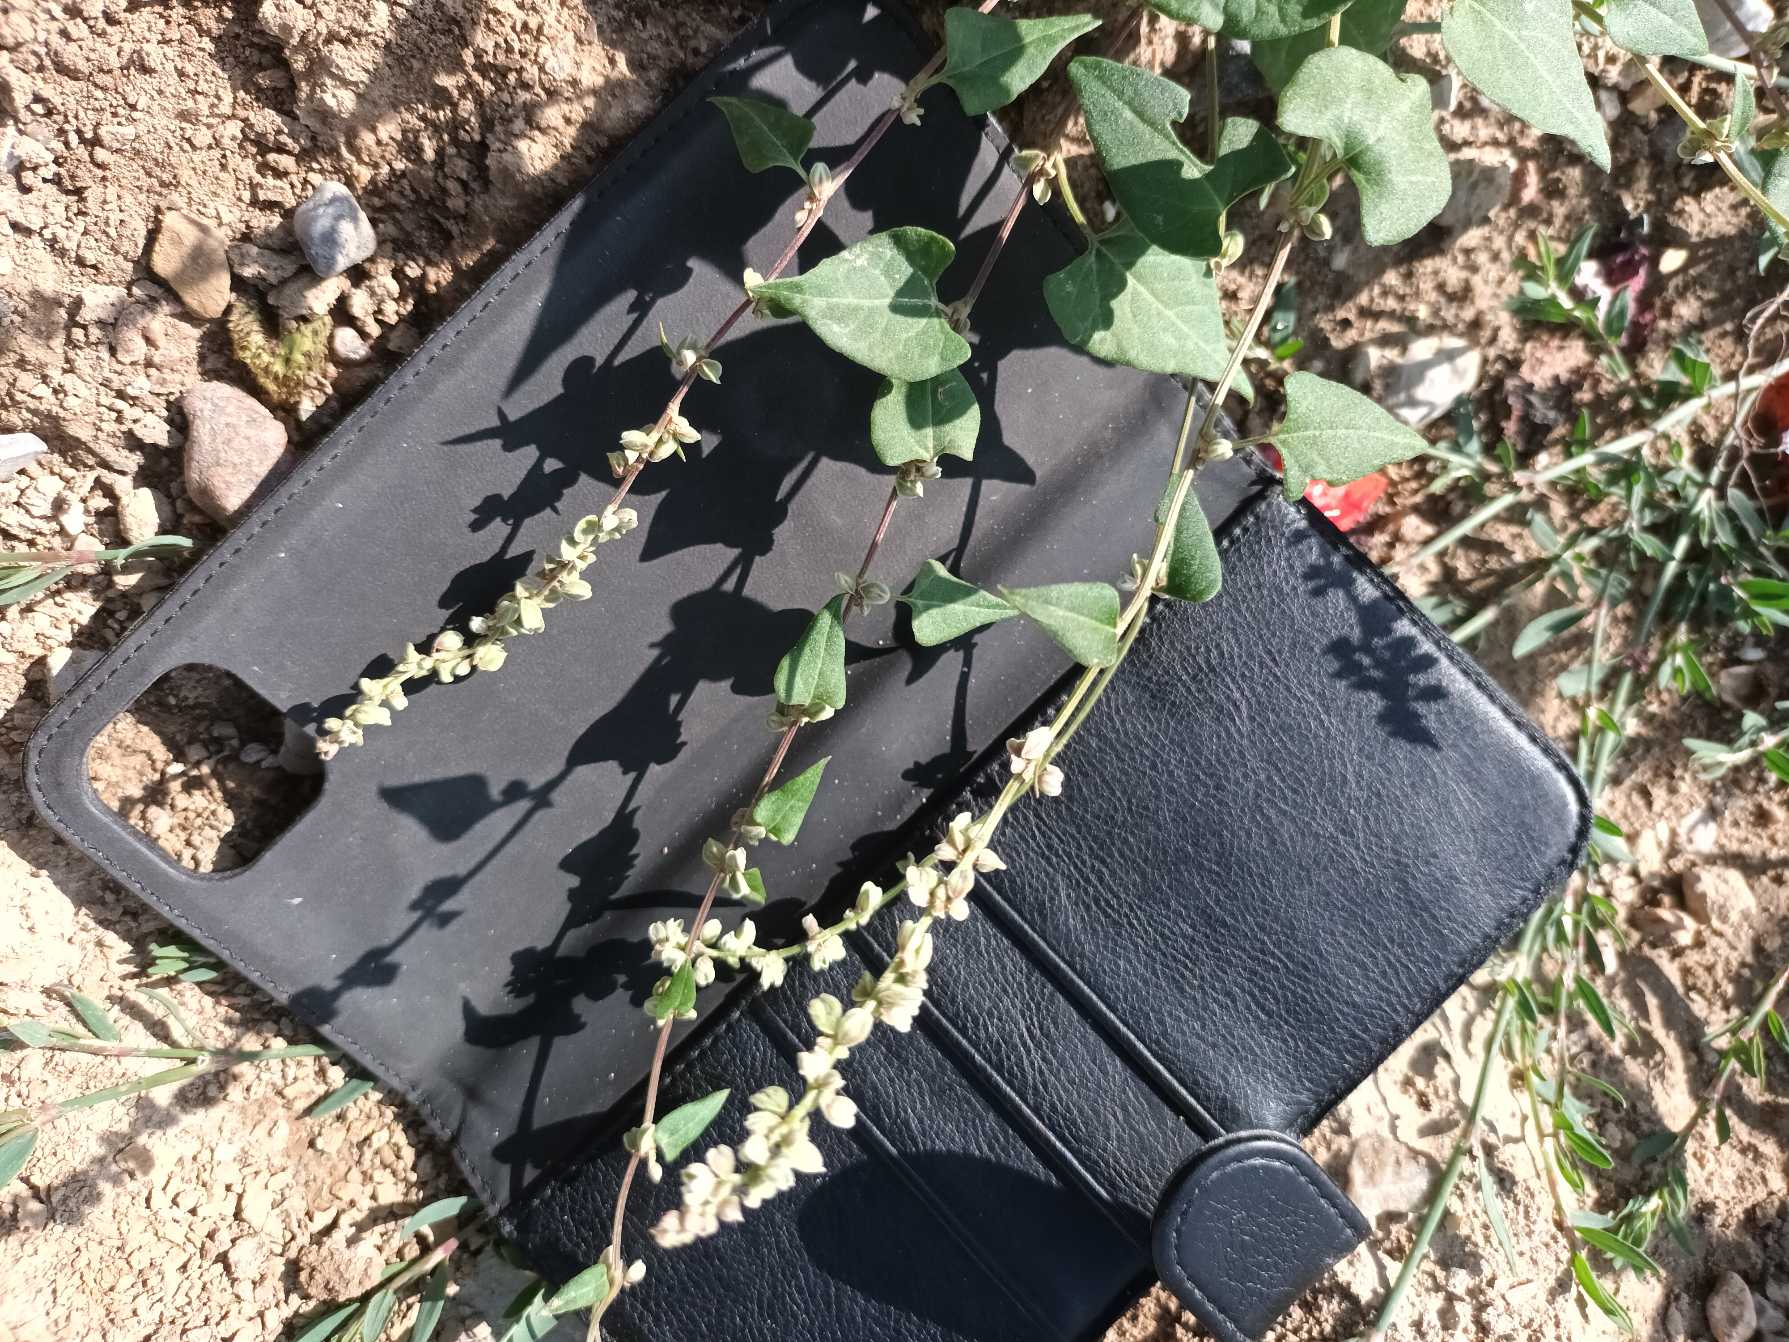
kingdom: Plantae
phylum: Tracheophyta
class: Magnoliopsida
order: Caryophyllales
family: Polygonaceae
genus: Fallopia
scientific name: Fallopia convolvulus
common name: Snerle-pileurt
